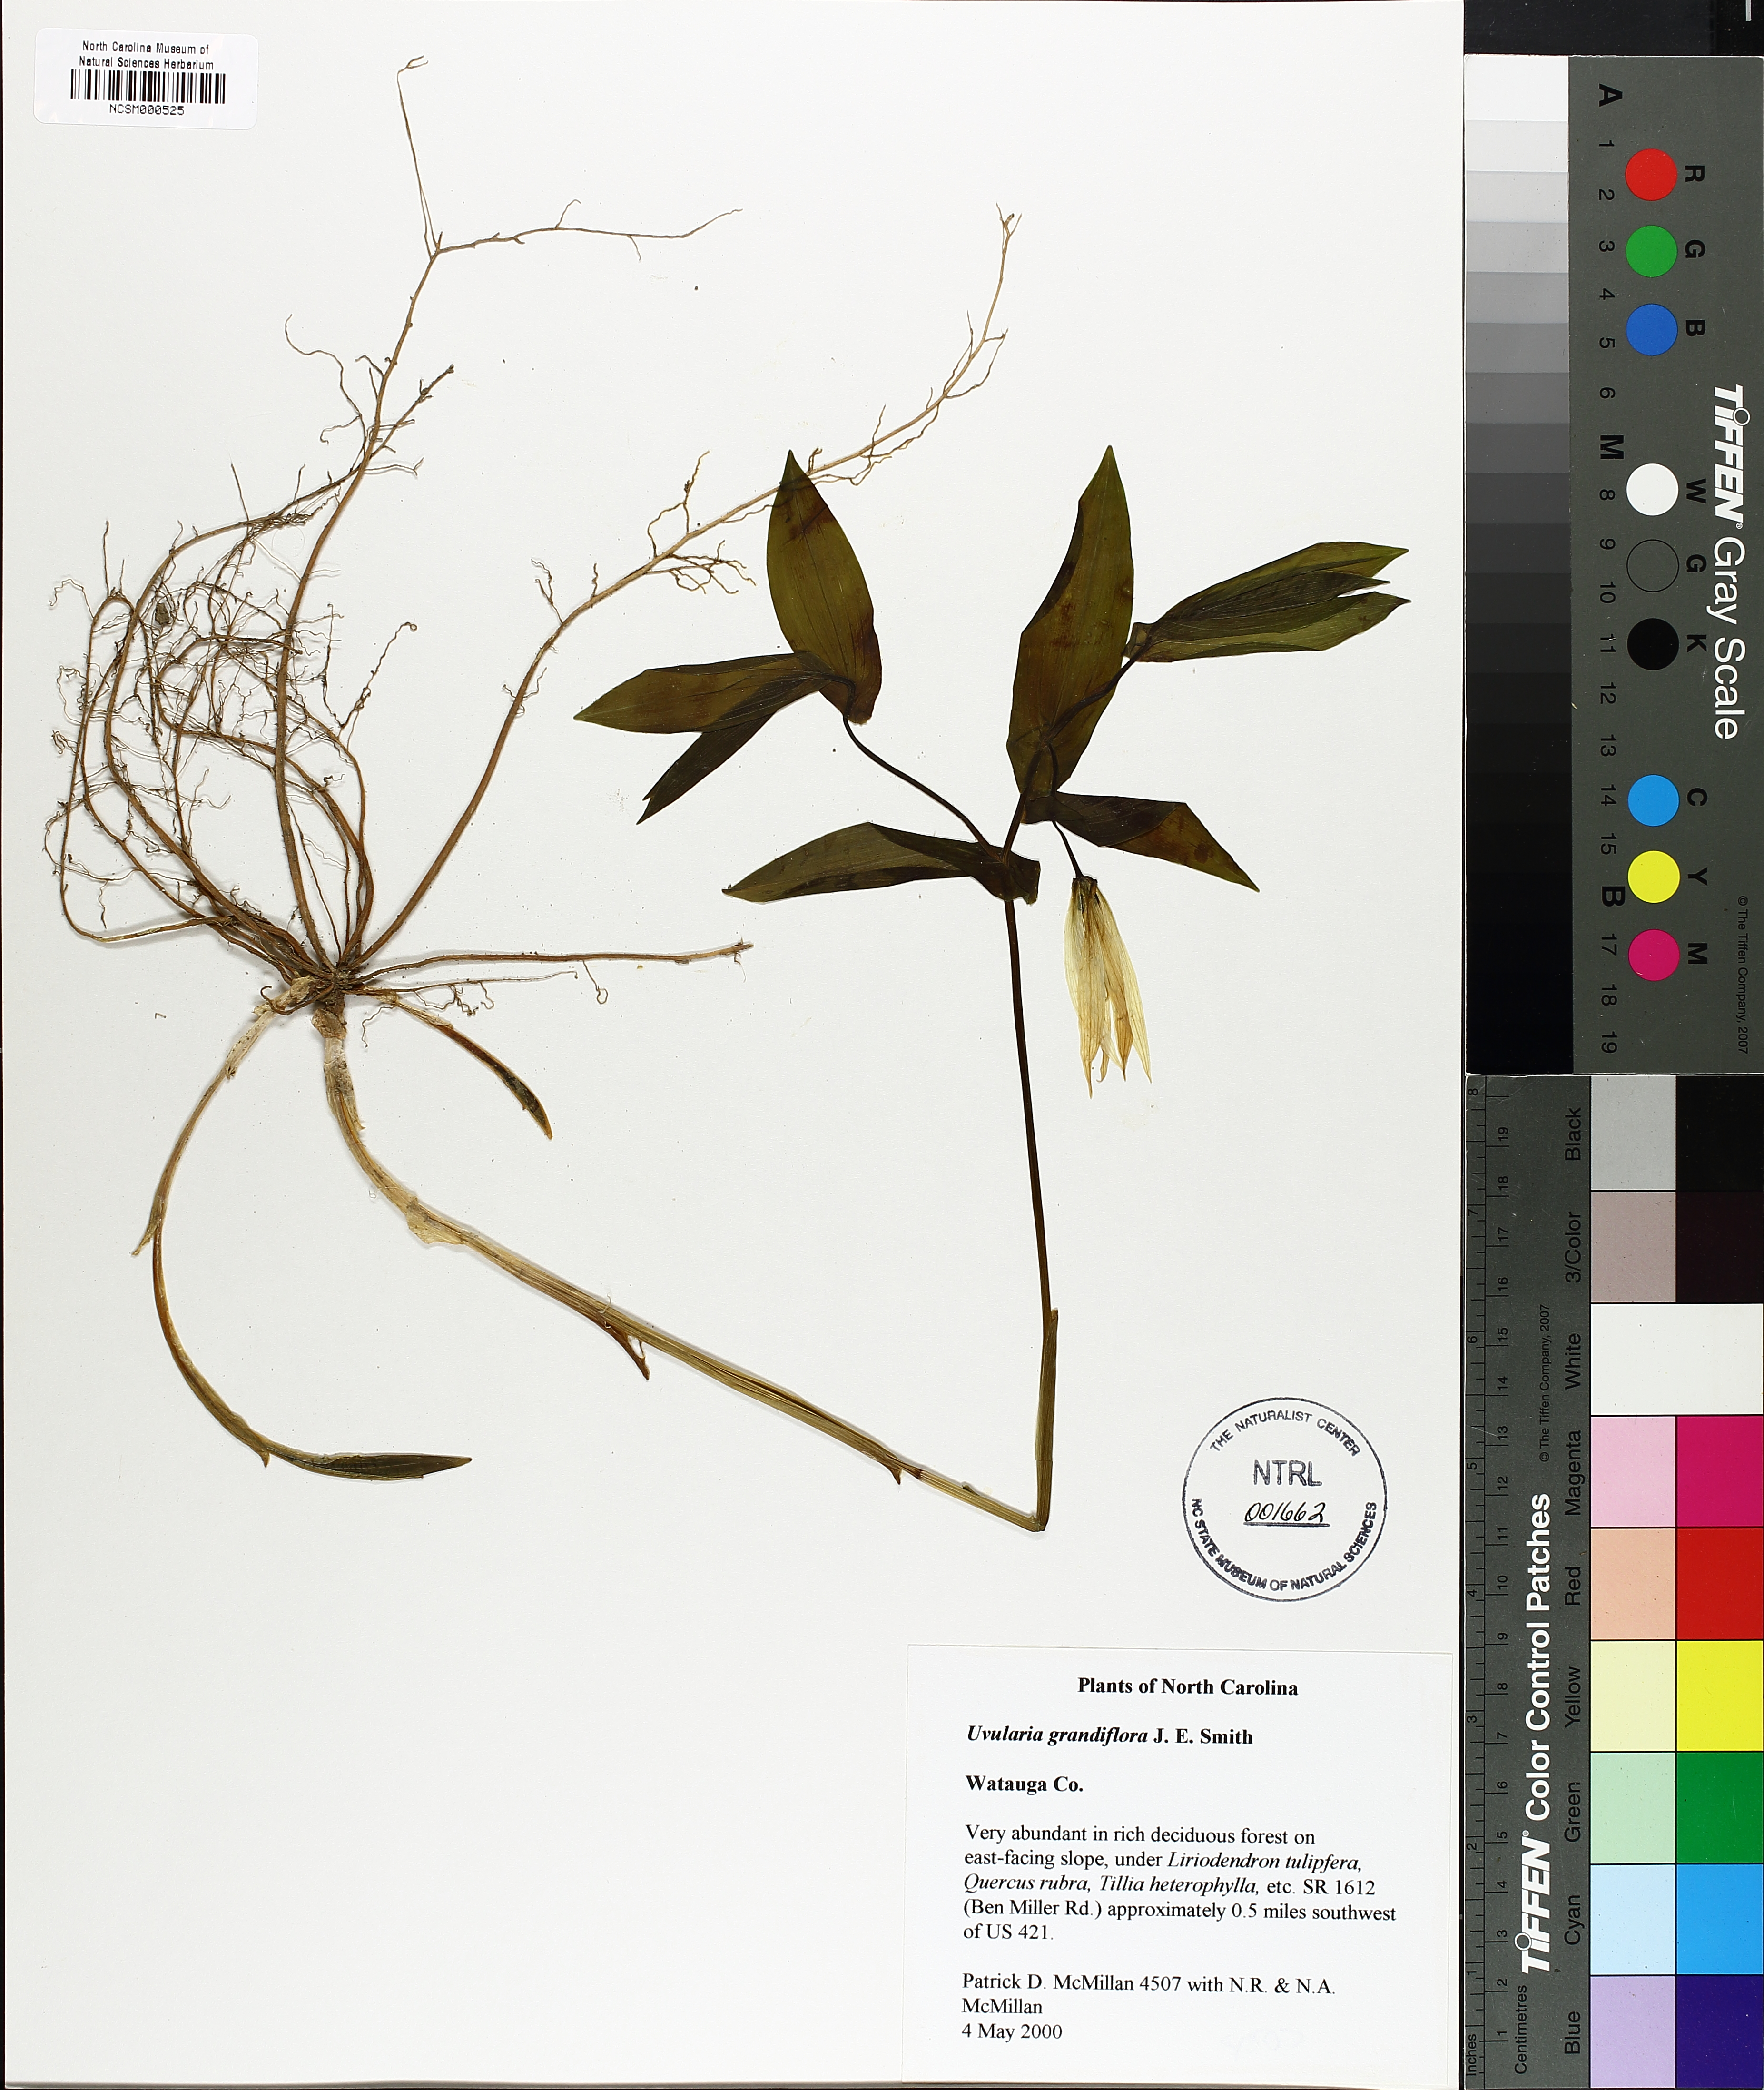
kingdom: Plantae
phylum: Tracheophyta
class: Liliopsida
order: Liliales
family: Colchicaceae
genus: Uvularia
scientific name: Uvularia grandiflora
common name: Bellwort
